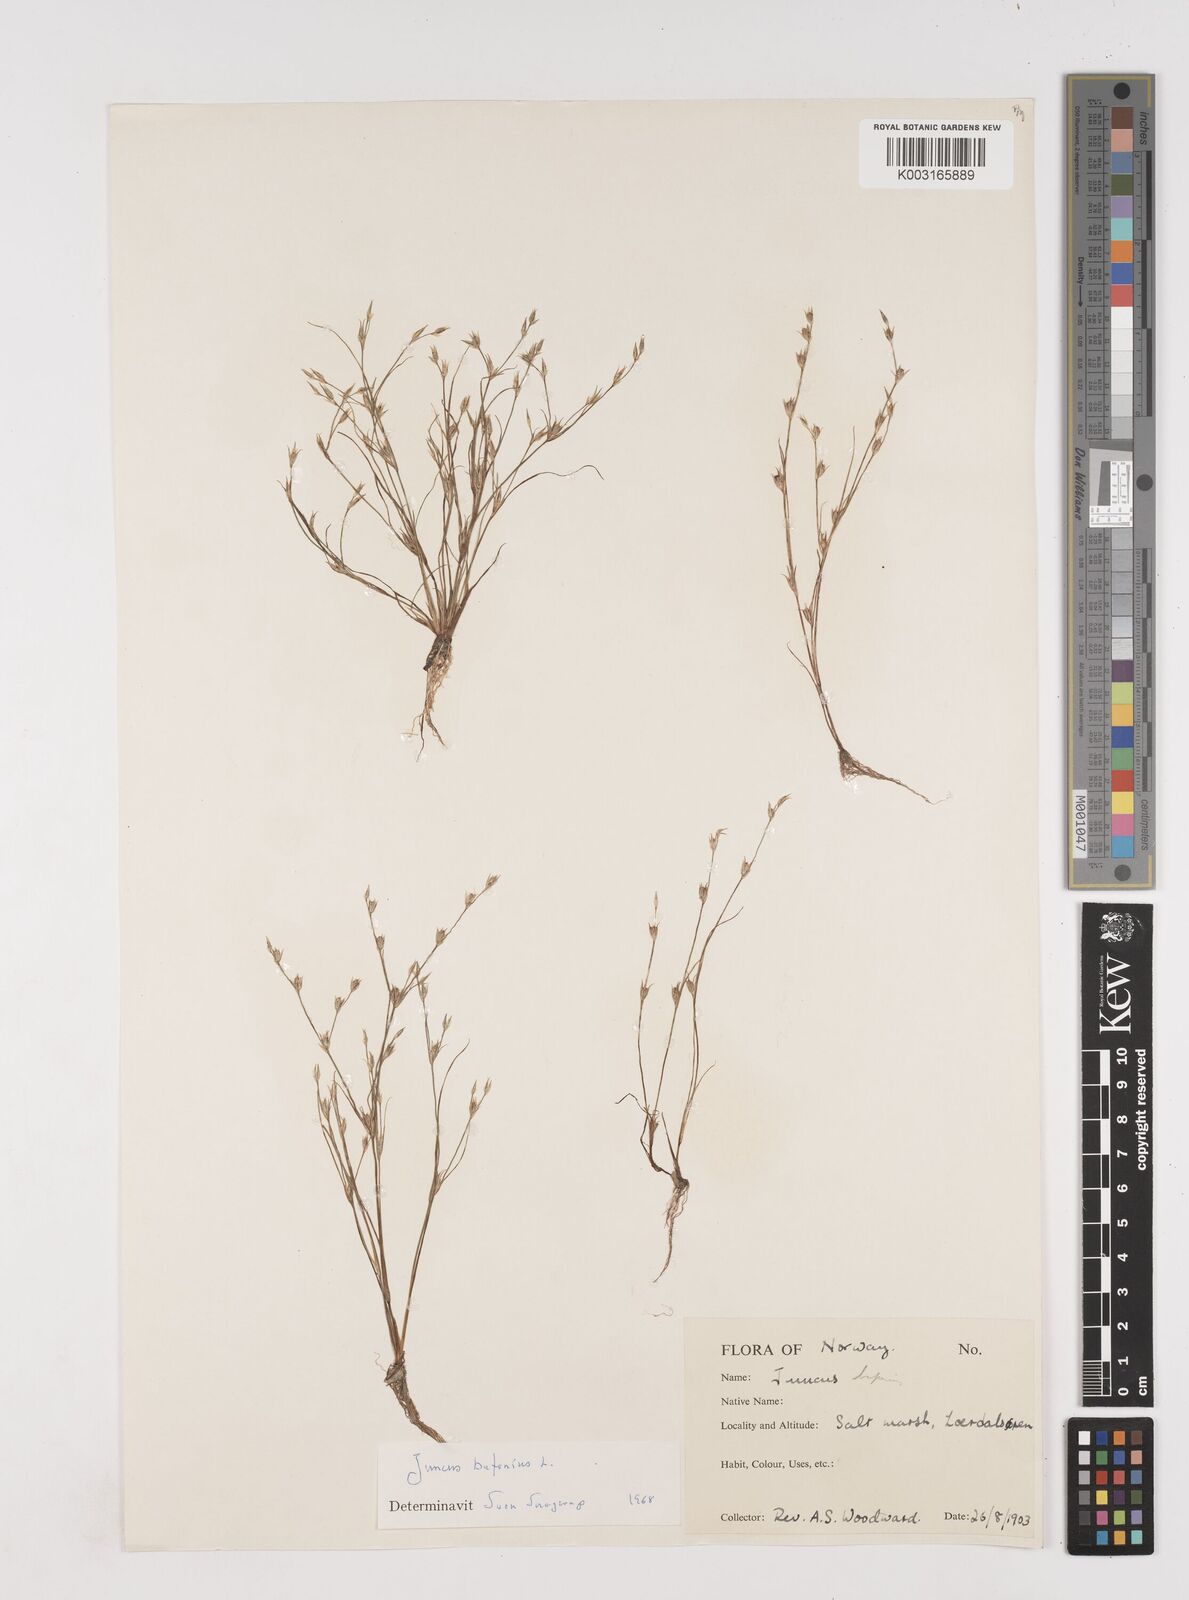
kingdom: Plantae
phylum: Tracheophyta
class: Liliopsida
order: Poales
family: Juncaceae
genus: Juncus
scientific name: Juncus bufonius
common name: Toad rush
